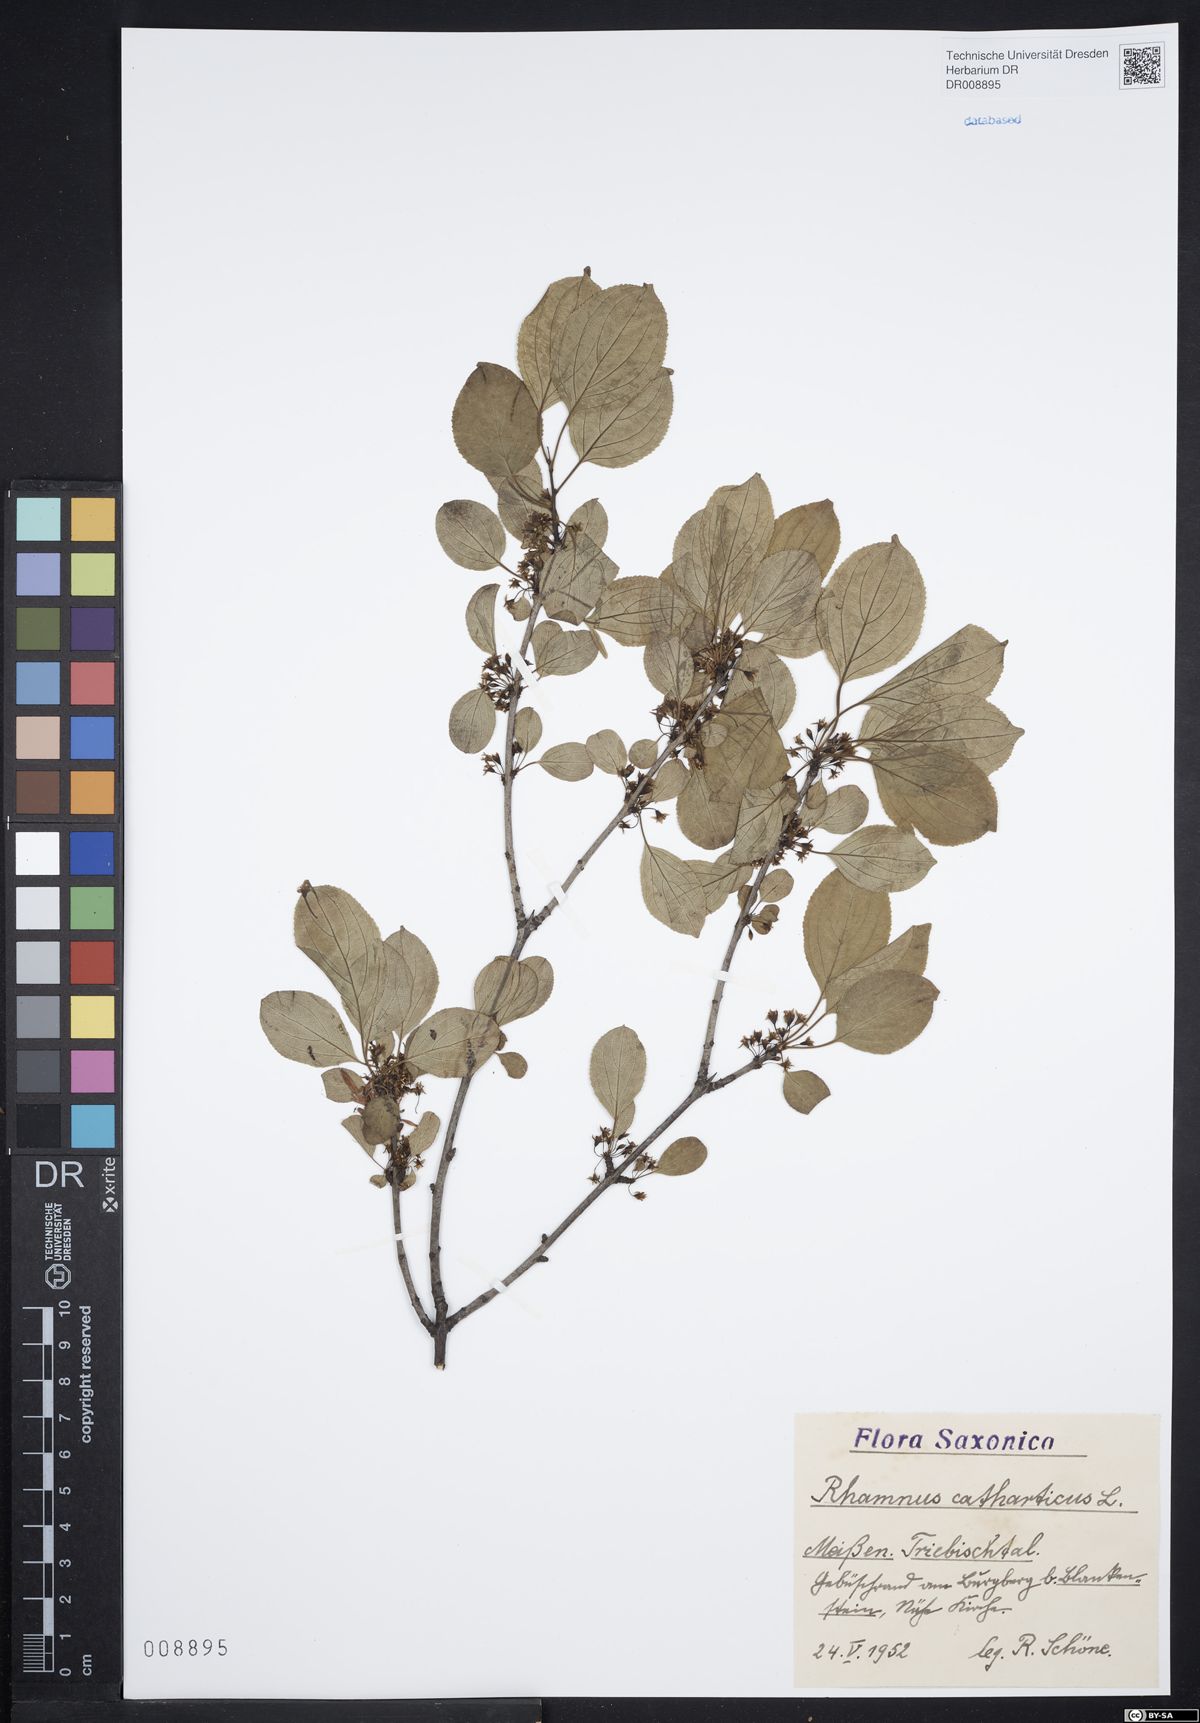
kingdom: Plantae
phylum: Tracheophyta
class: Magnoliopsida
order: Rosales
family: Rhamnaceae
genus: Rhamnus
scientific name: Rhamnus cathartica
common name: Common buckthorn
